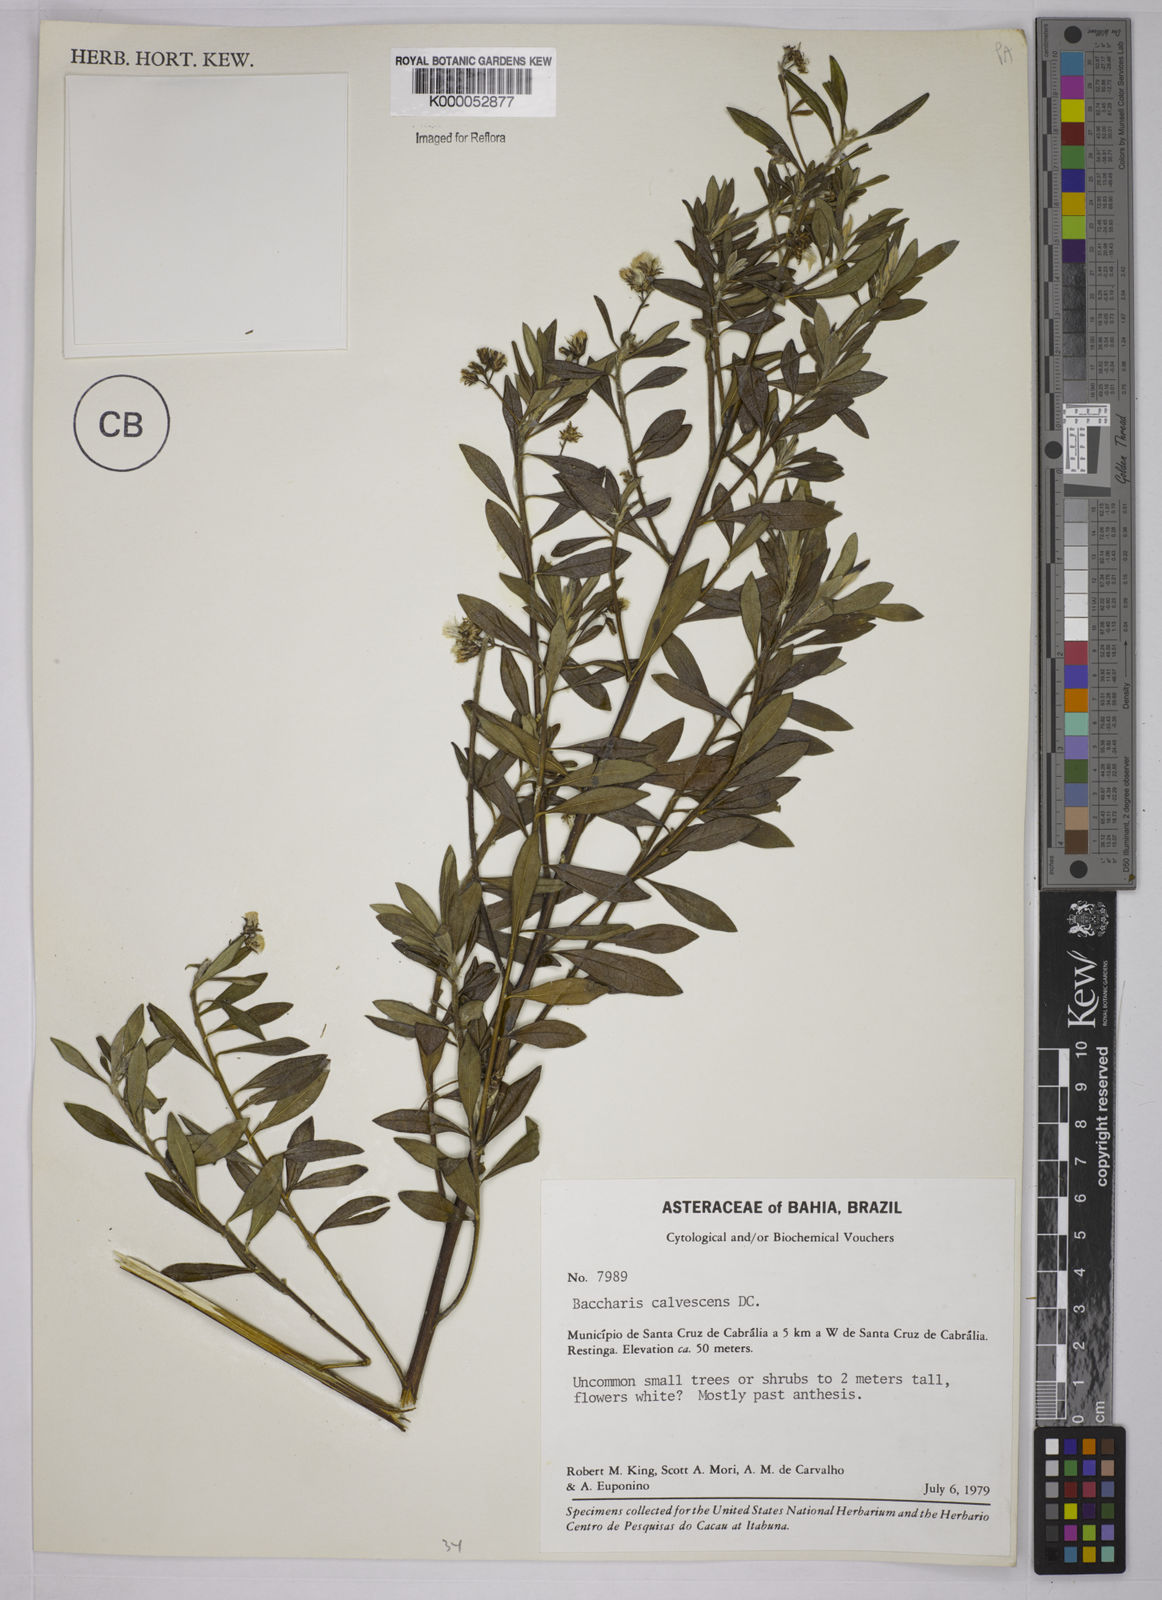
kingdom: Plantae
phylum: Tracheophyta
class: Magnoliopsida
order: Asterales
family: Asteraceae
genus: Baccharis
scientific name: Baccharis calvescens
